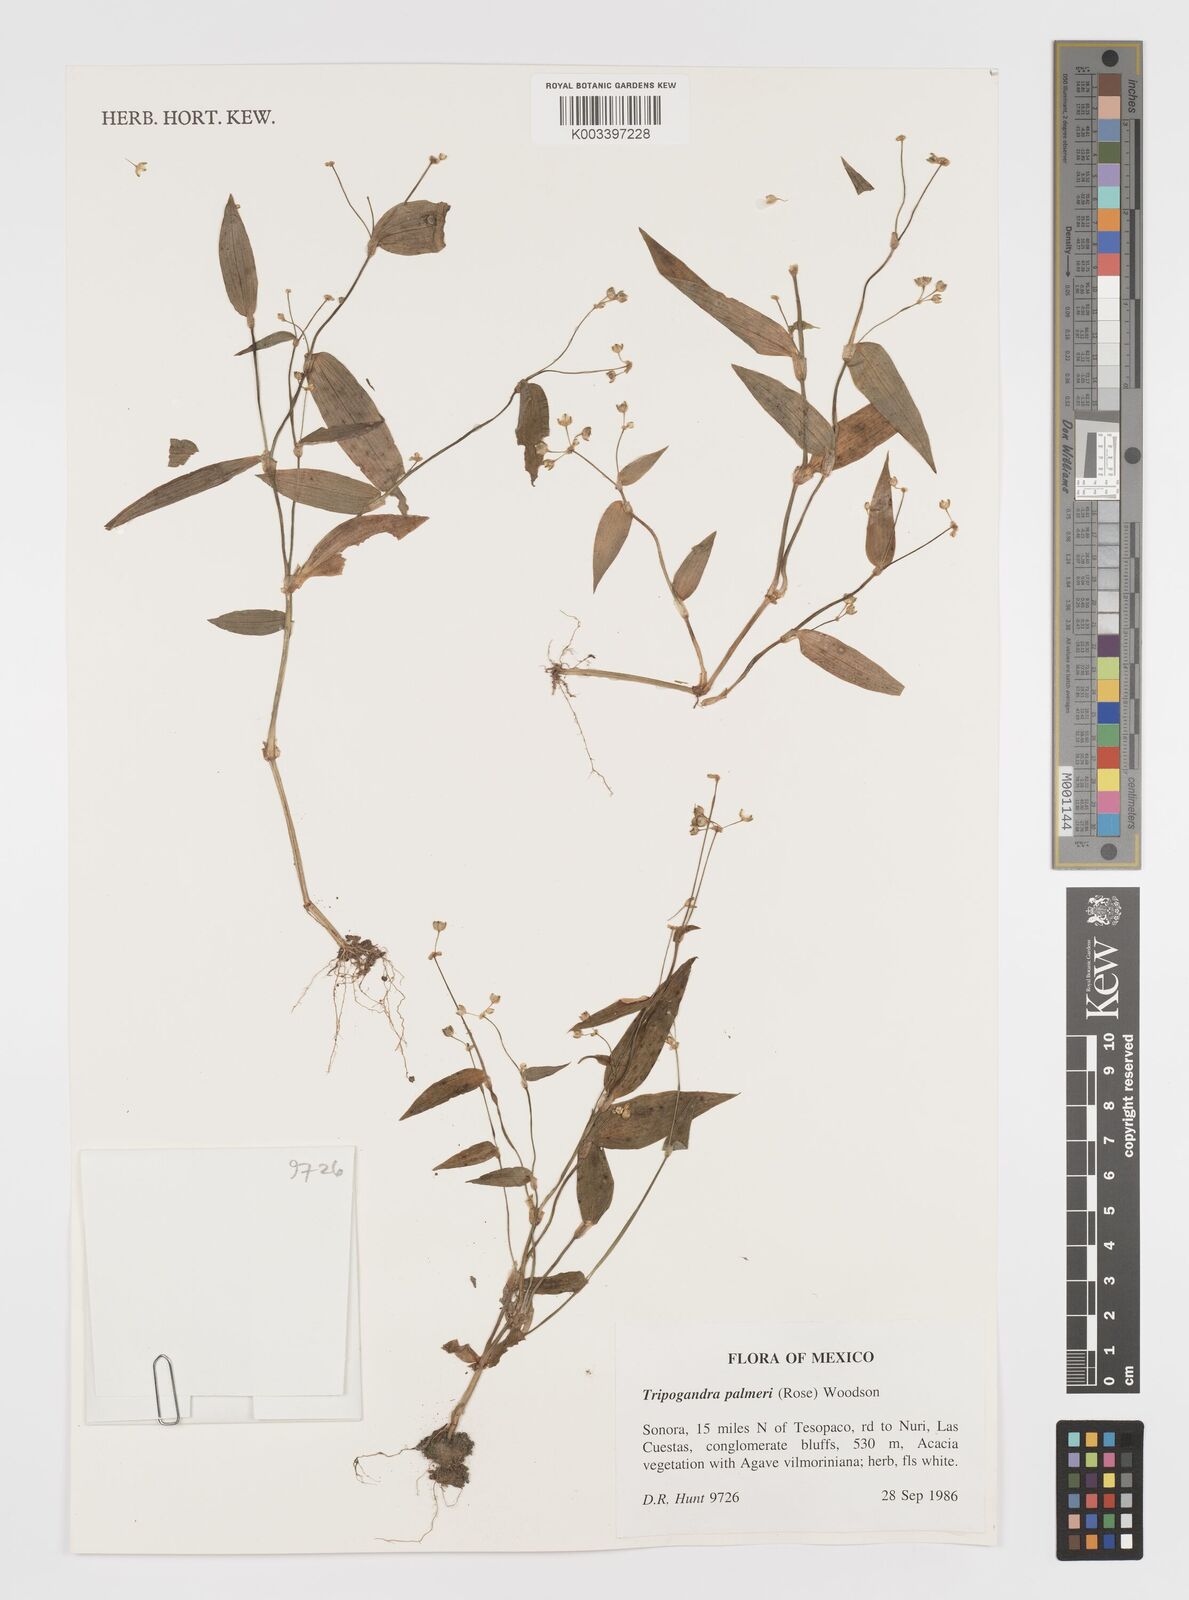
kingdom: Plantae
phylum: Tracheophyta
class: Liliopsida
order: Commelinales
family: Commelinaceae
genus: Callisia
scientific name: Callisia palmeri
